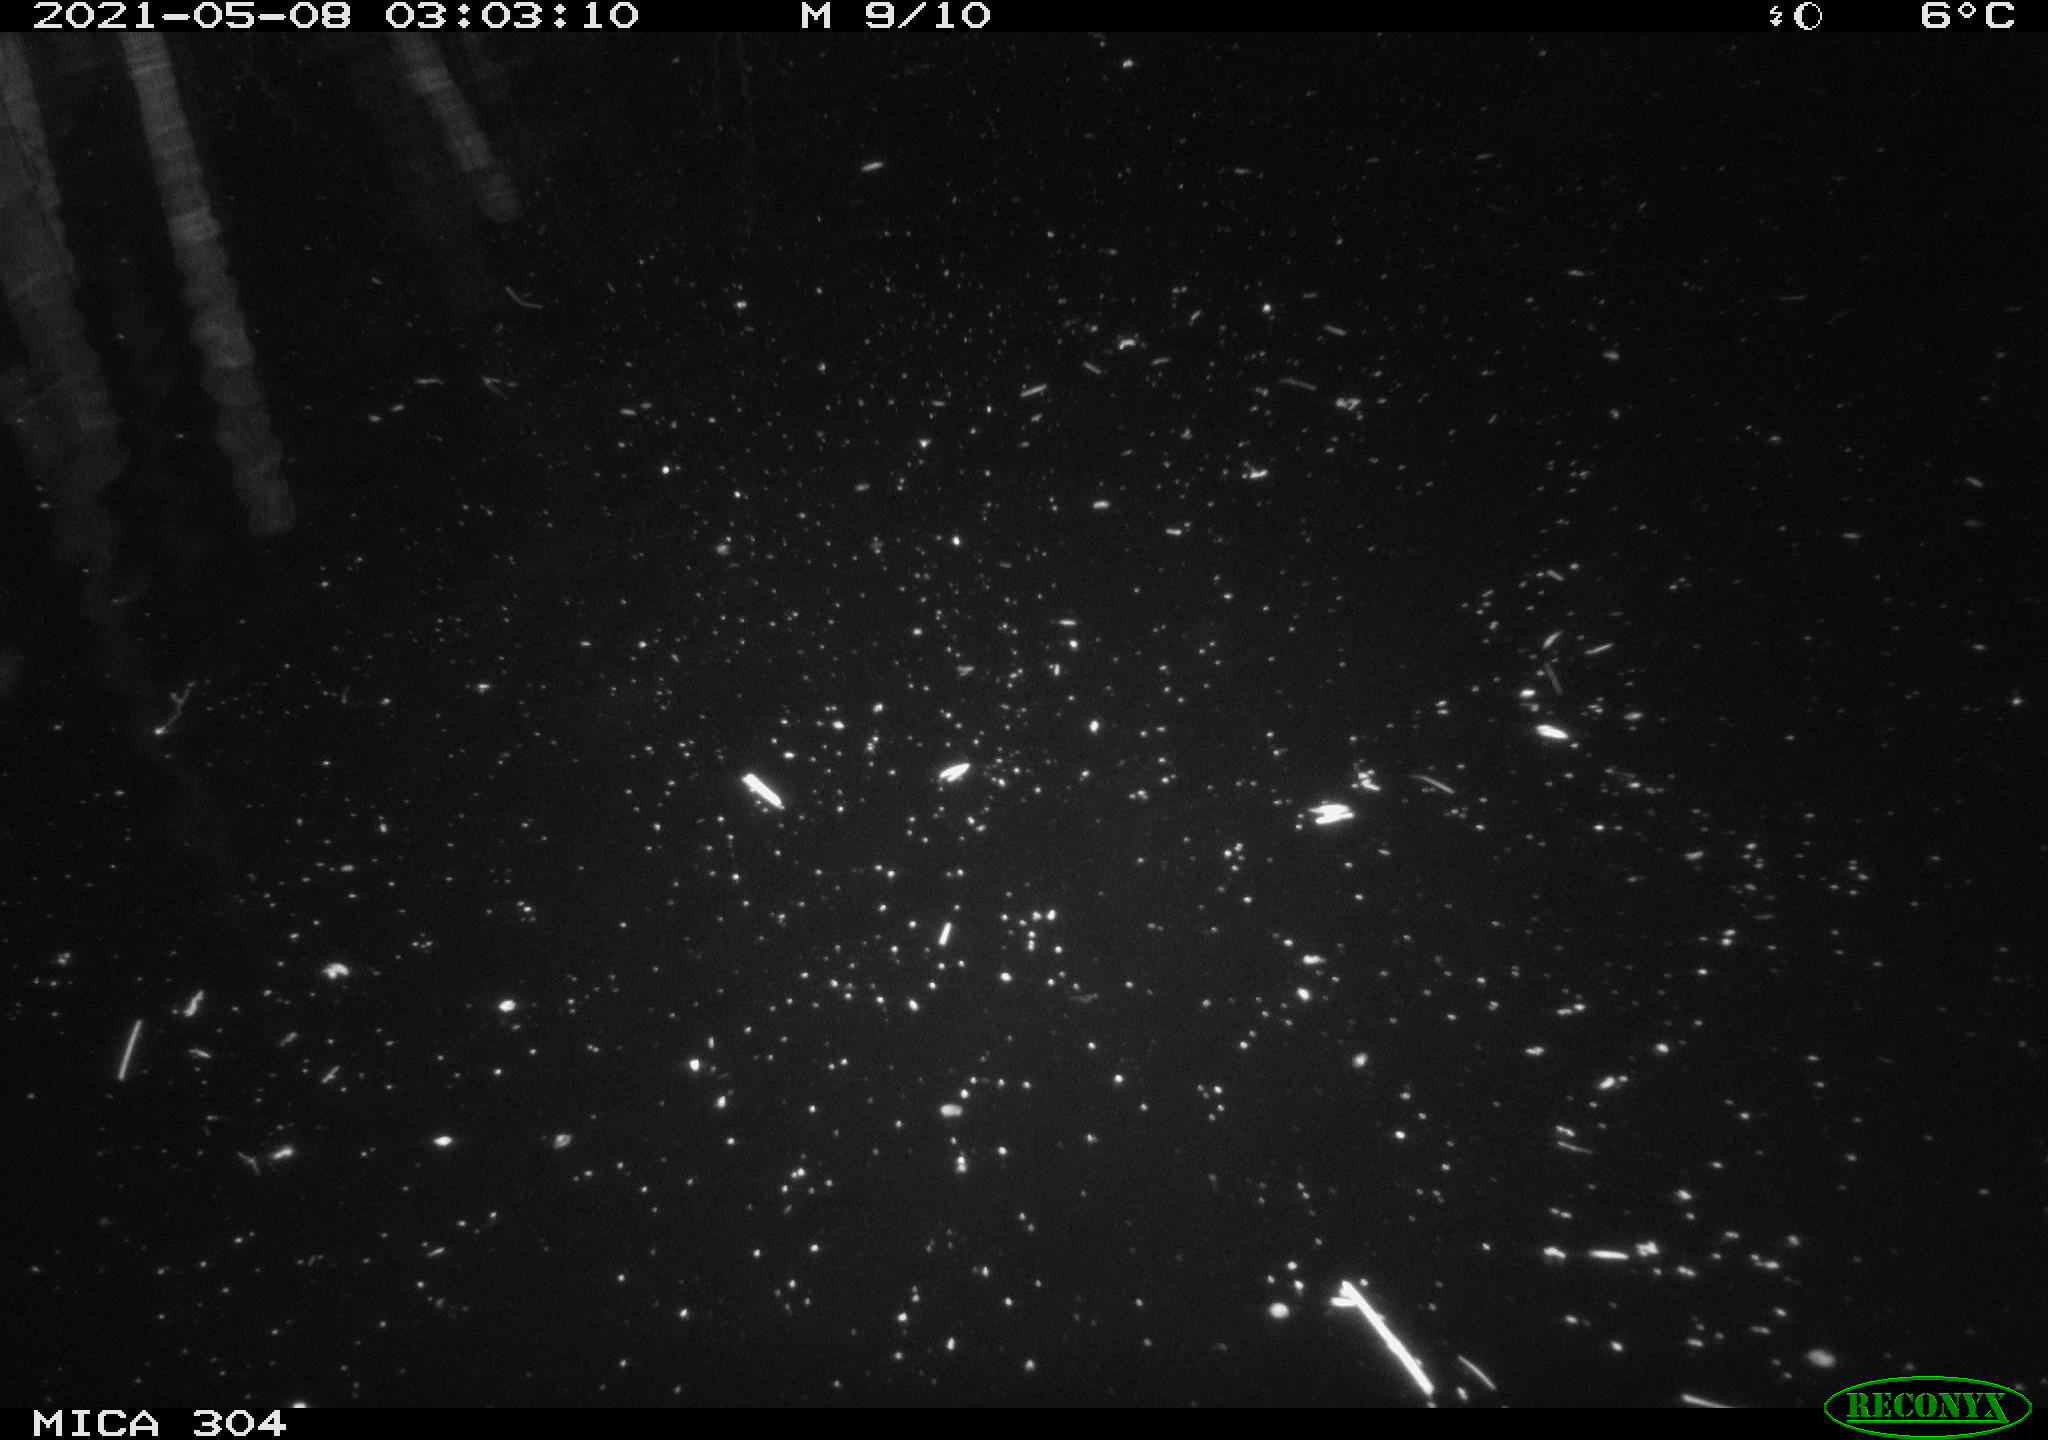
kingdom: Animalia
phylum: Chordata
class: Mammalia
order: Rodentia
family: Cricetidae
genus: Ondatra
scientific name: Ondatra zibethicus
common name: Muskrat
